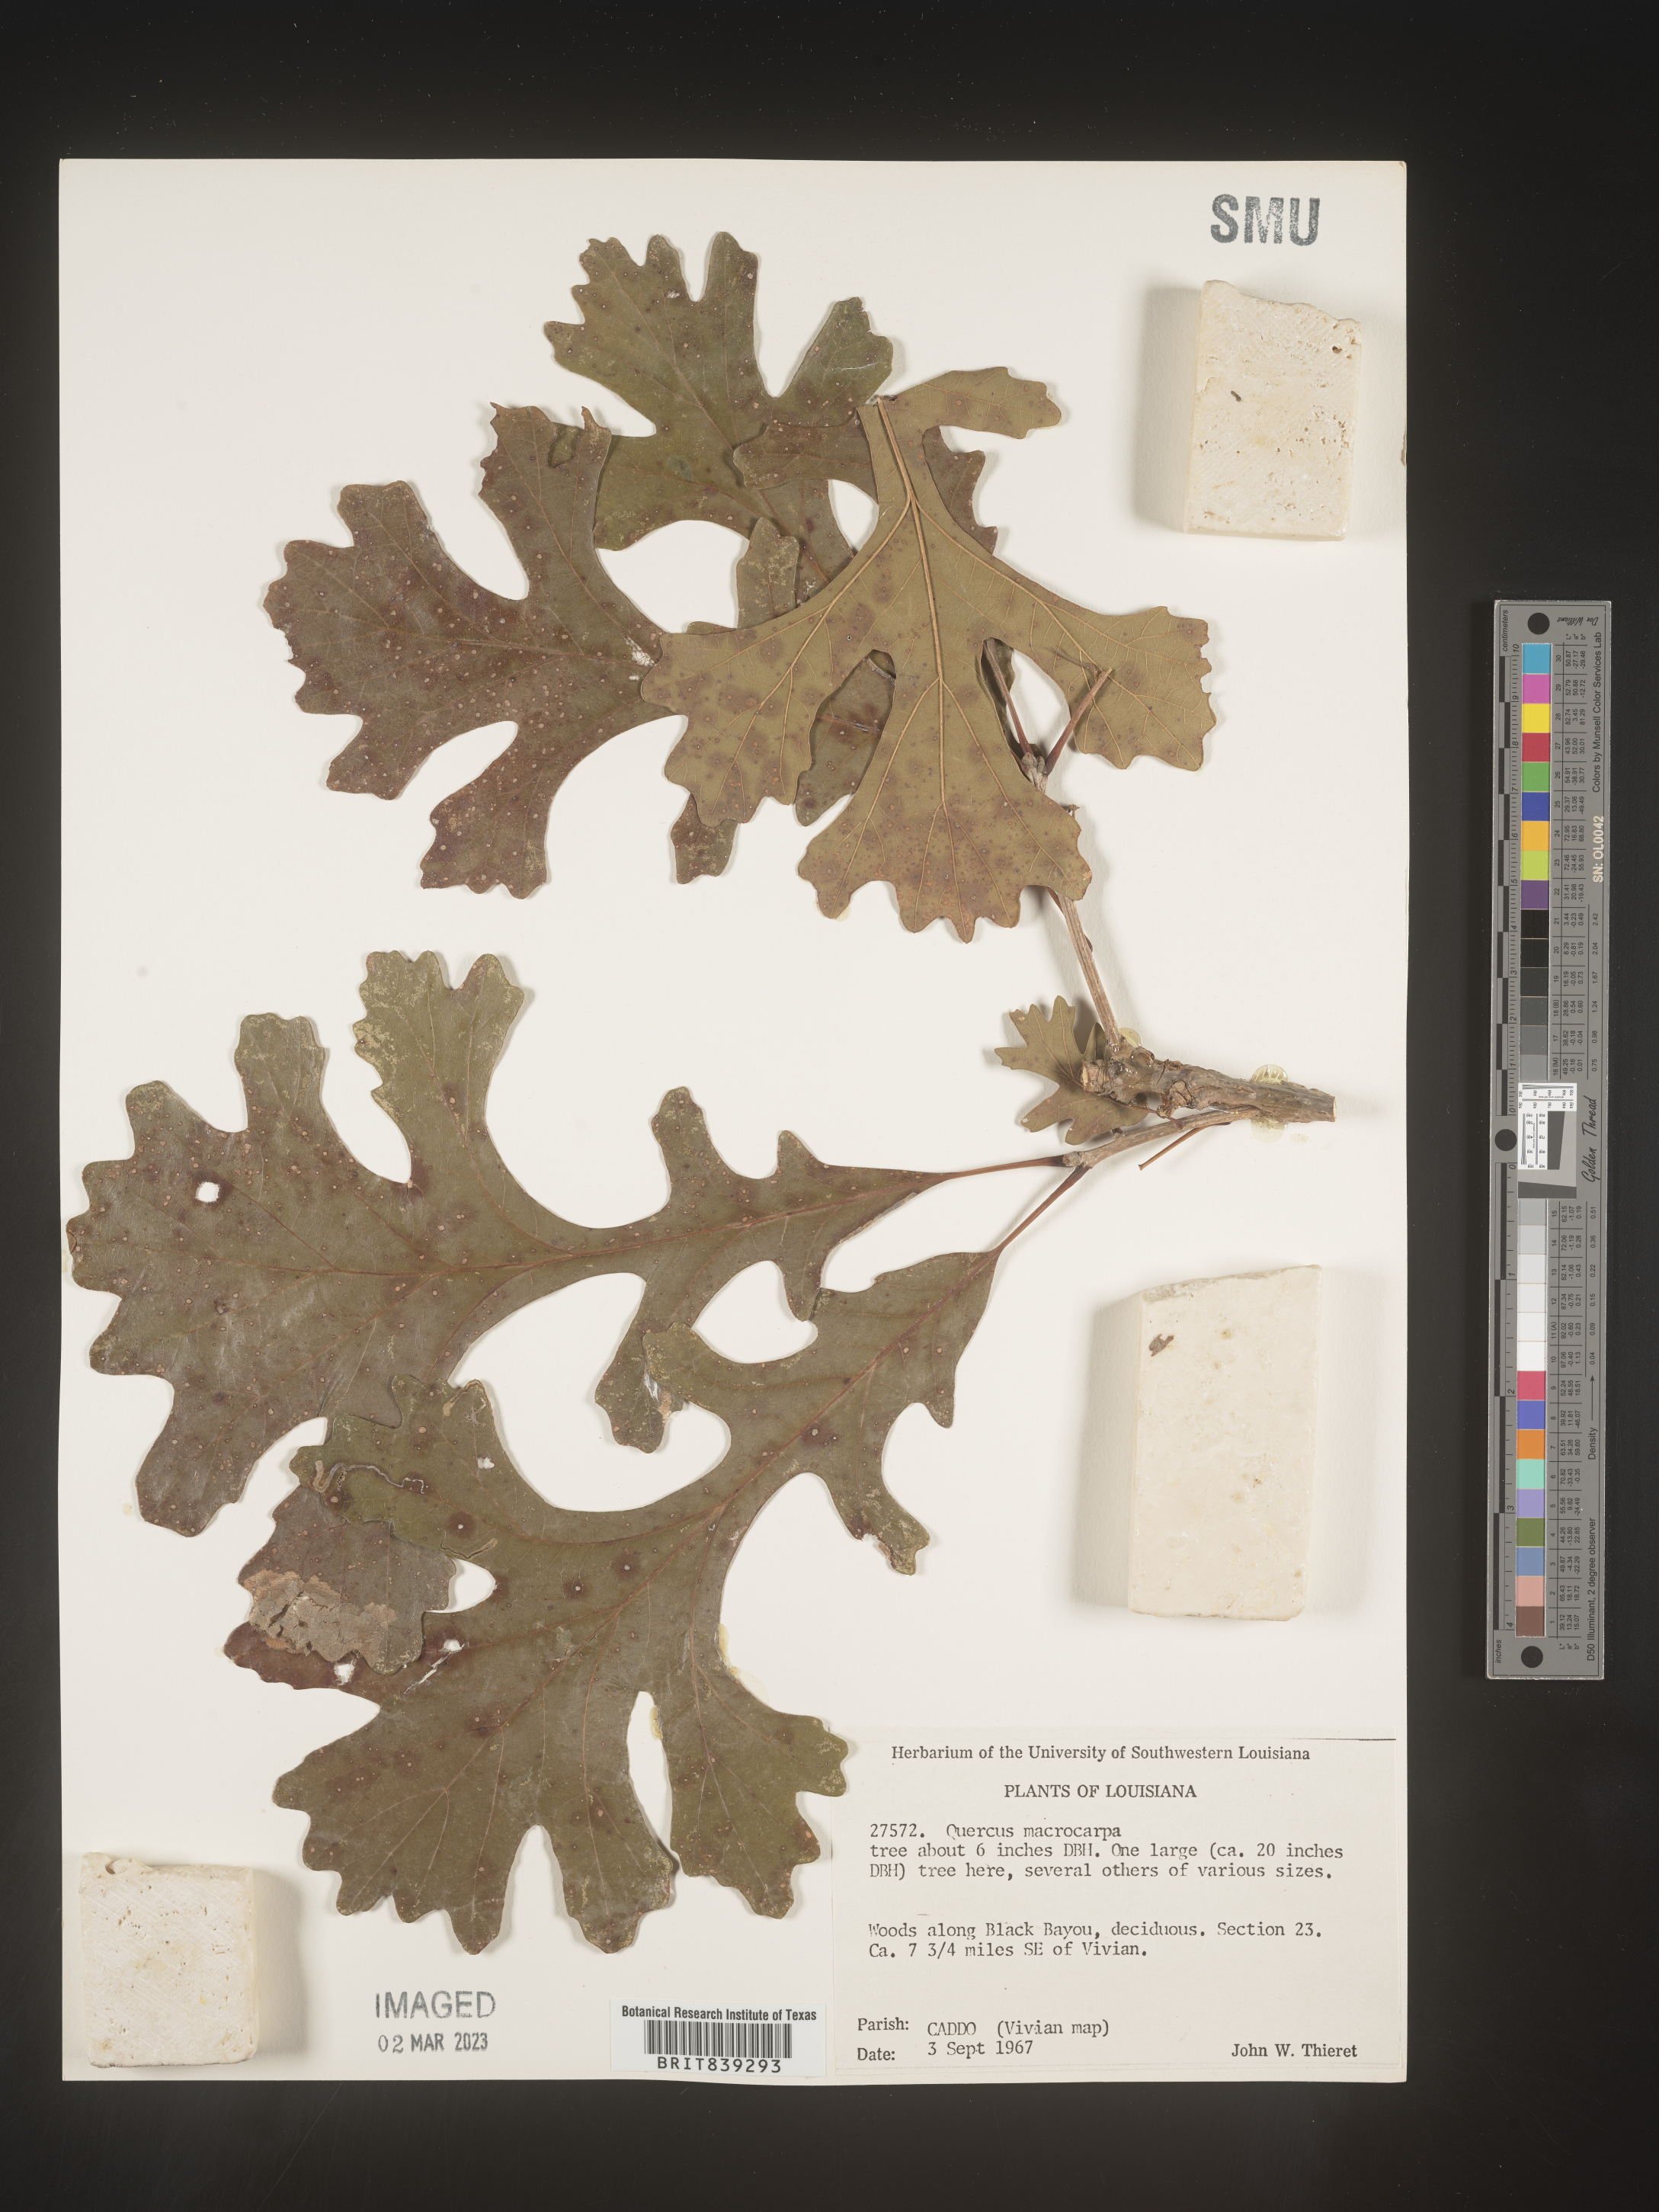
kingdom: Plantae
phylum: Tracheophyta
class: Magnoliopsida
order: Fagales
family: Fagaceae
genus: Quercus
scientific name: Quercus macrocarpa
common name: Bur oak
